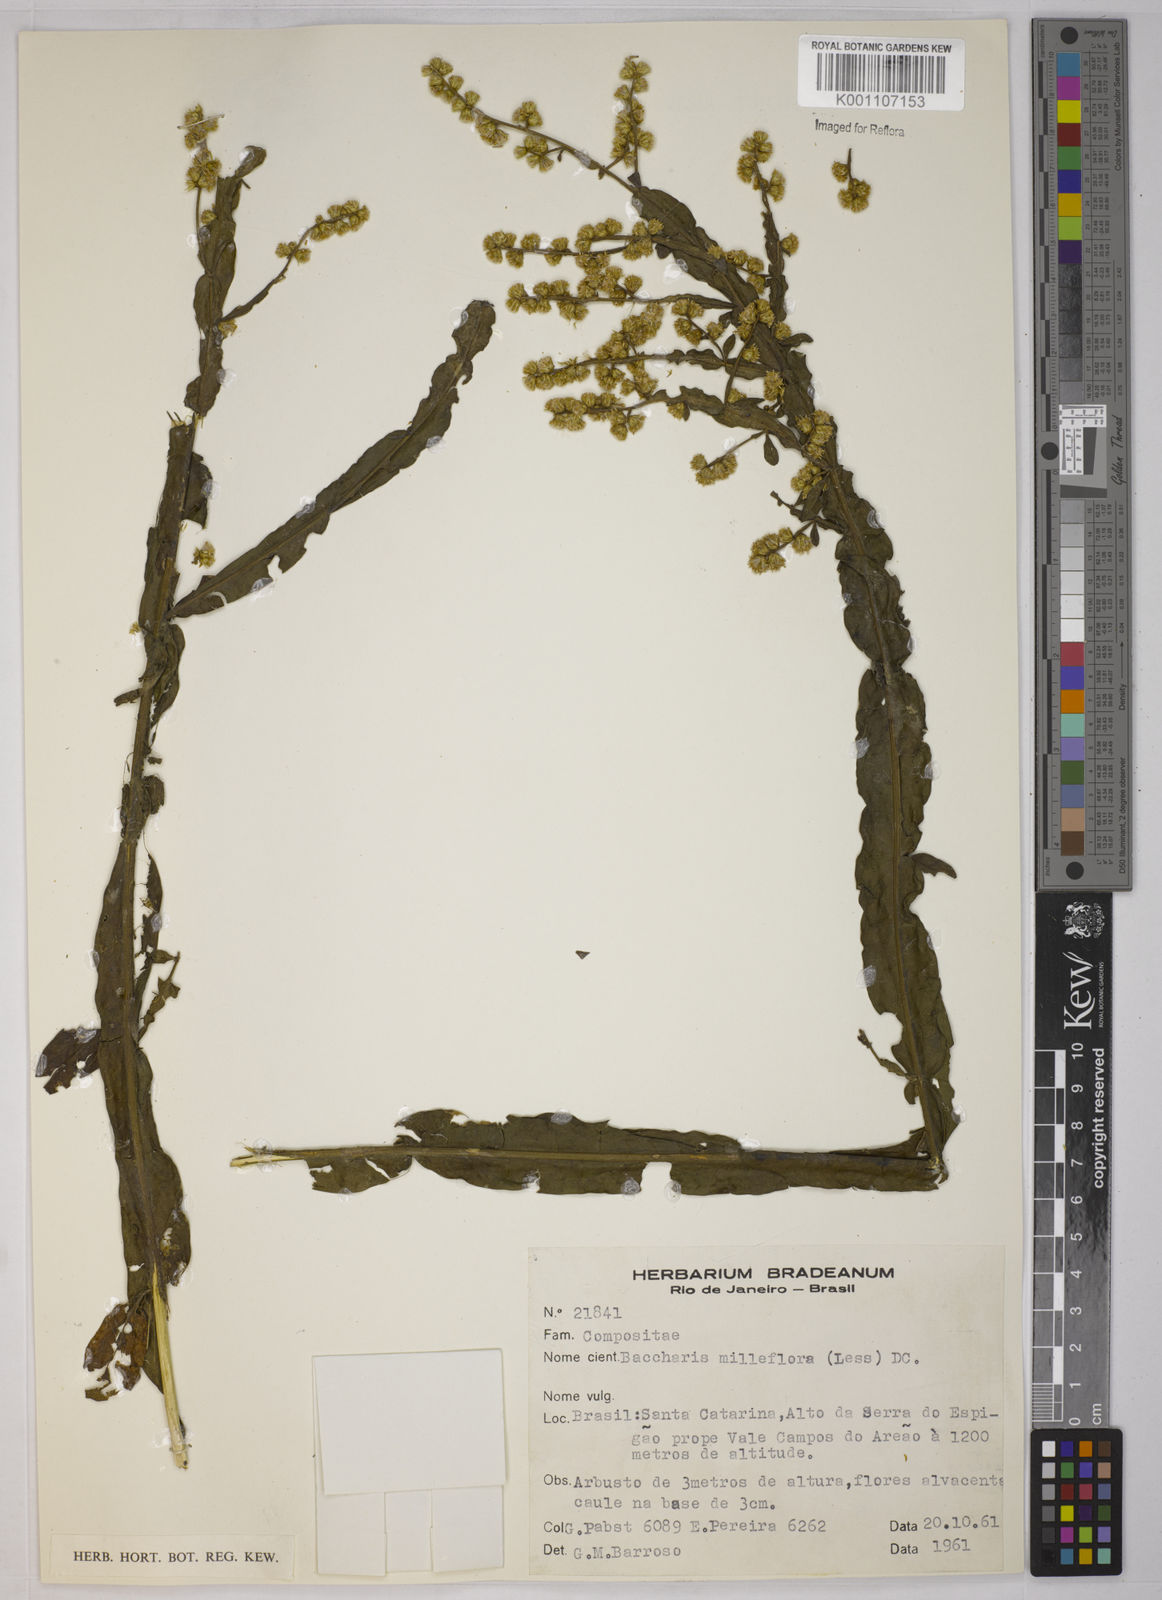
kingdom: Plantae
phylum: Tracheophyta
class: Magnoliopsida
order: Asterales
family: Asteraceae
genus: Baccharis
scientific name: Baccharis milleflora
